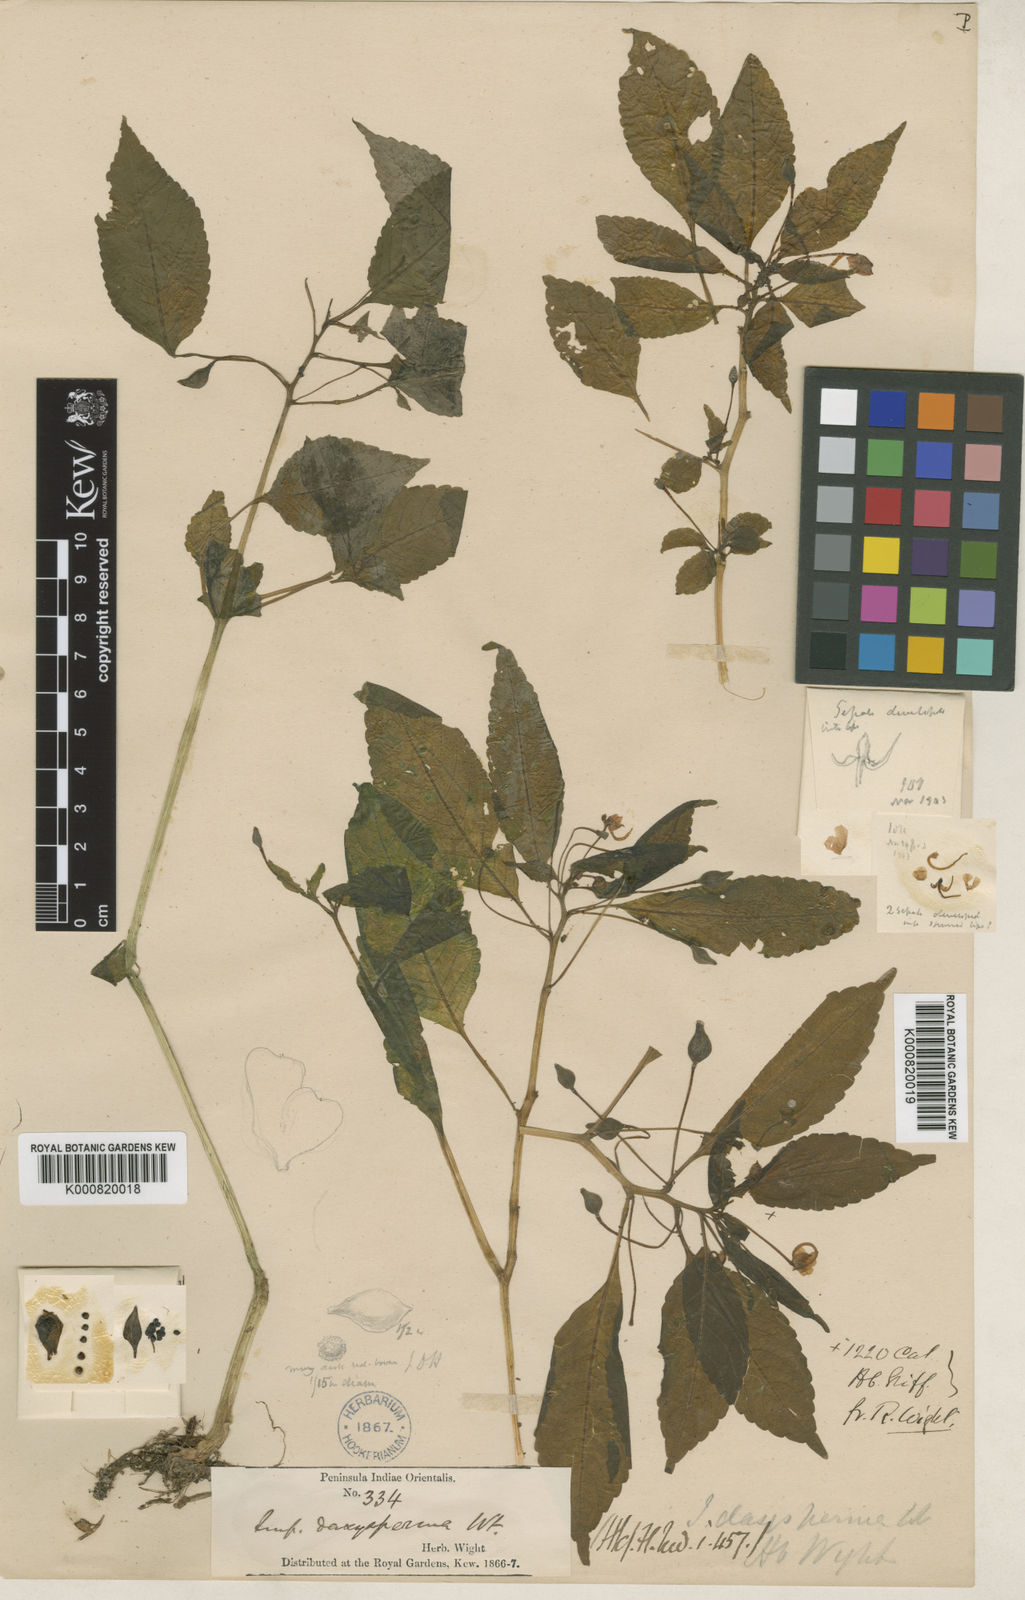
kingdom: Plantae
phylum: Tracheophyta
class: Magnoliopsida
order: Ericales
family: Balsaminaceae
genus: Impatiens
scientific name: Impatiens dasysperma
